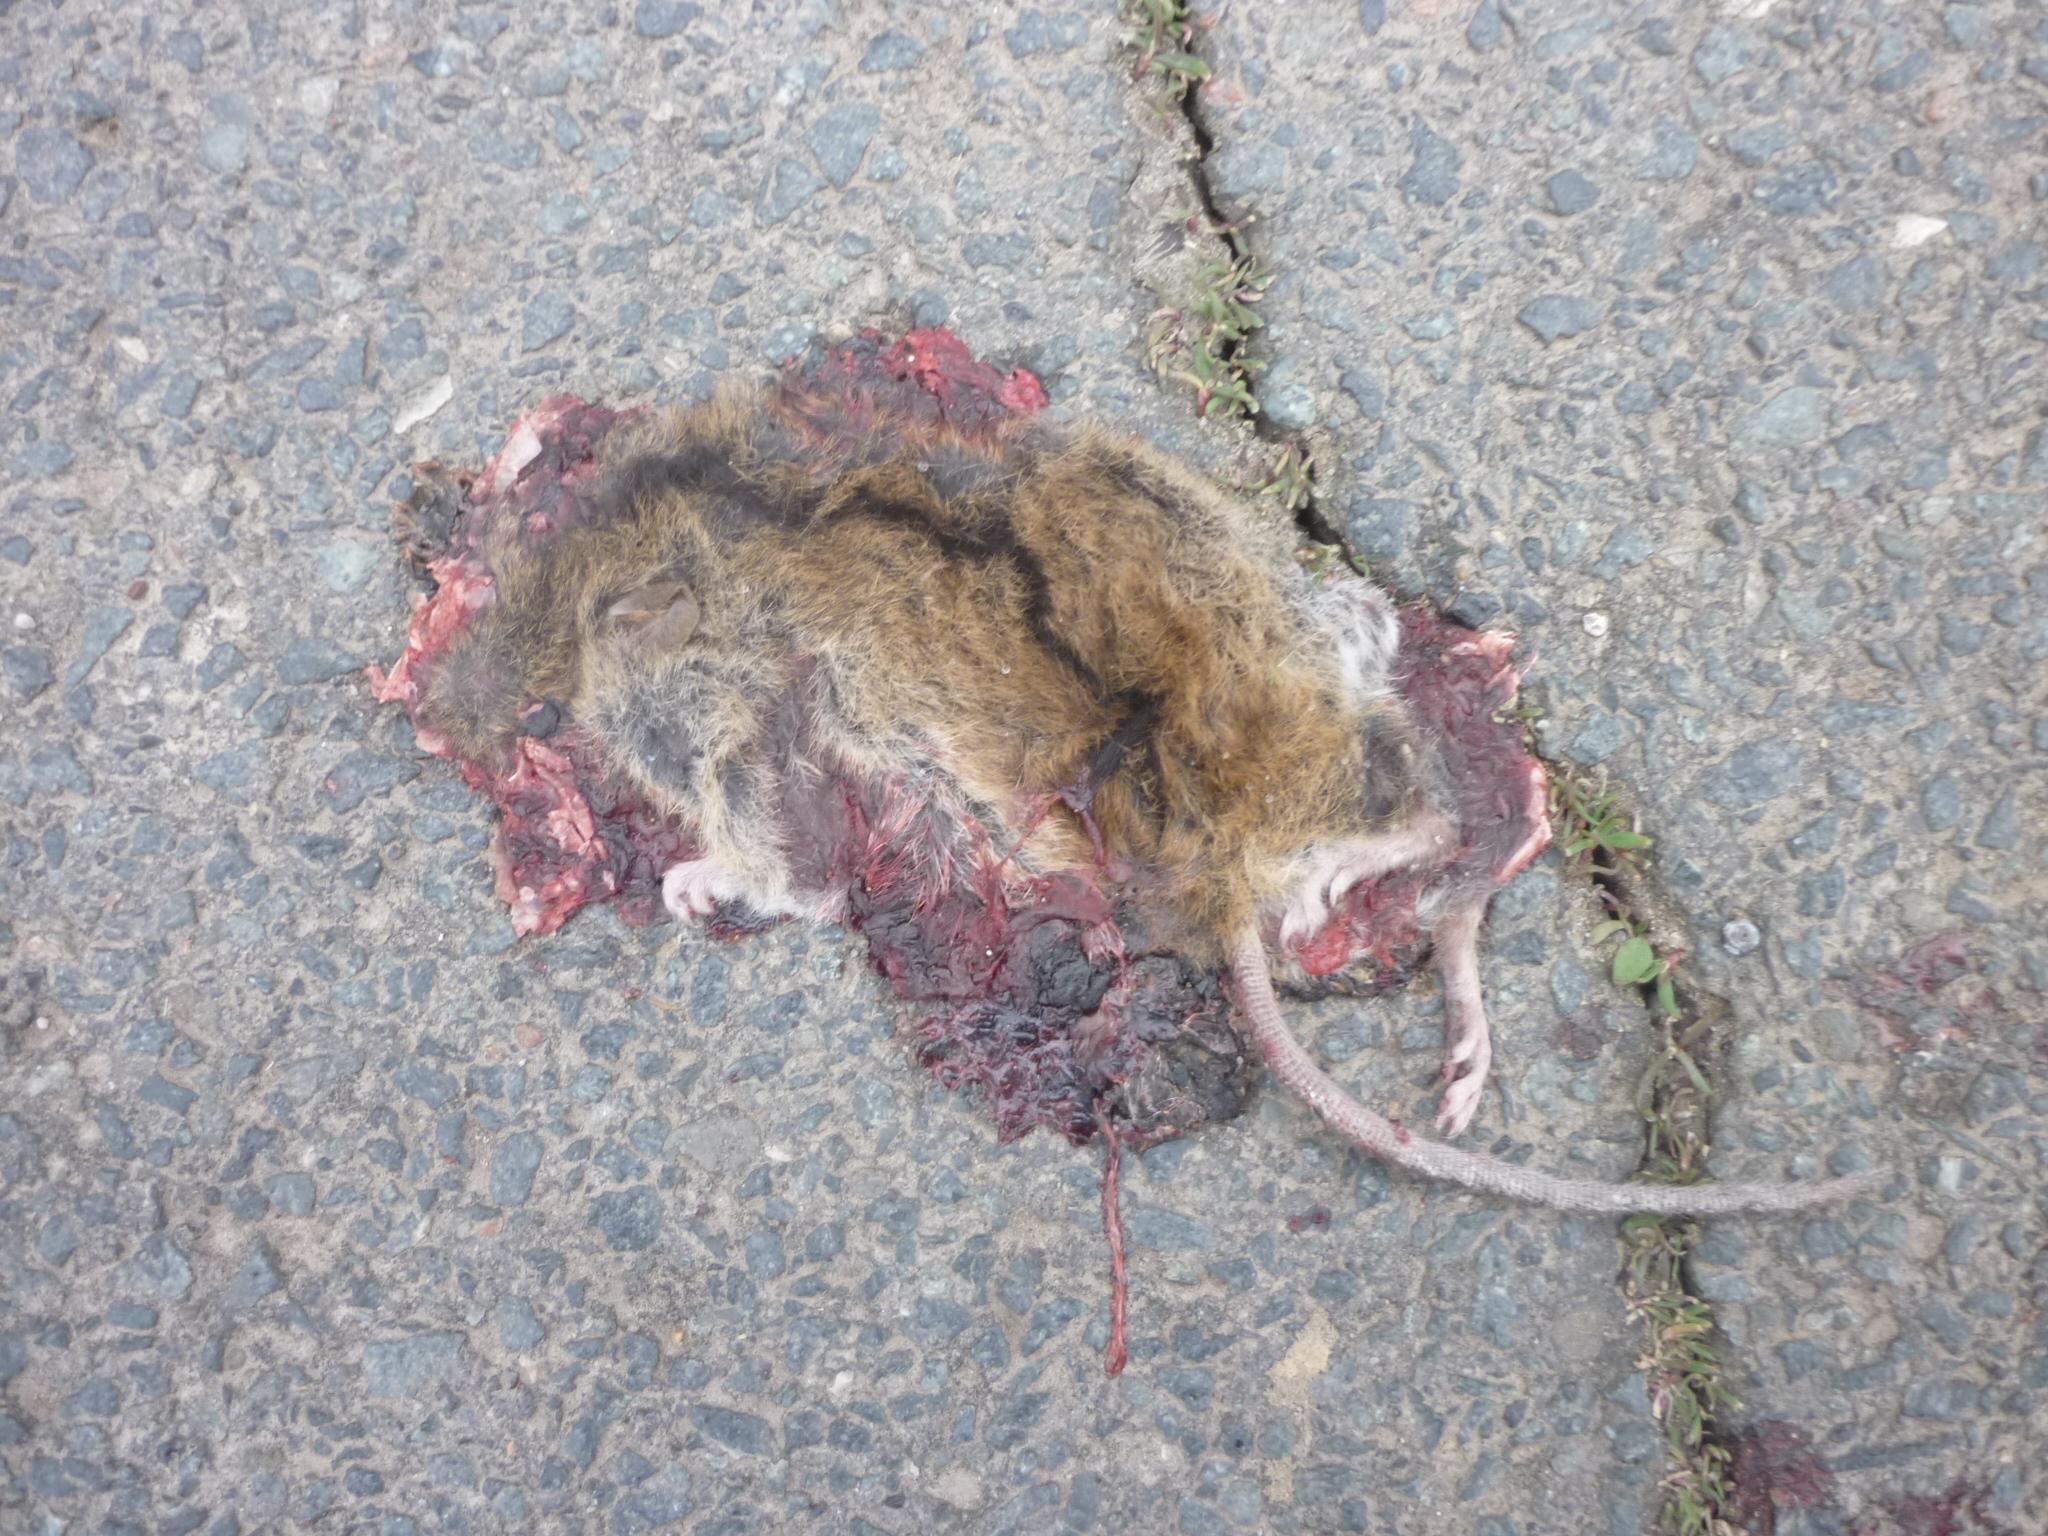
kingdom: Animalia
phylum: Chordata
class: Mammalia
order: Rodentia
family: Muridae
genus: Apodemus
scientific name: Apodemus agrarius
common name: Striped field mouse
